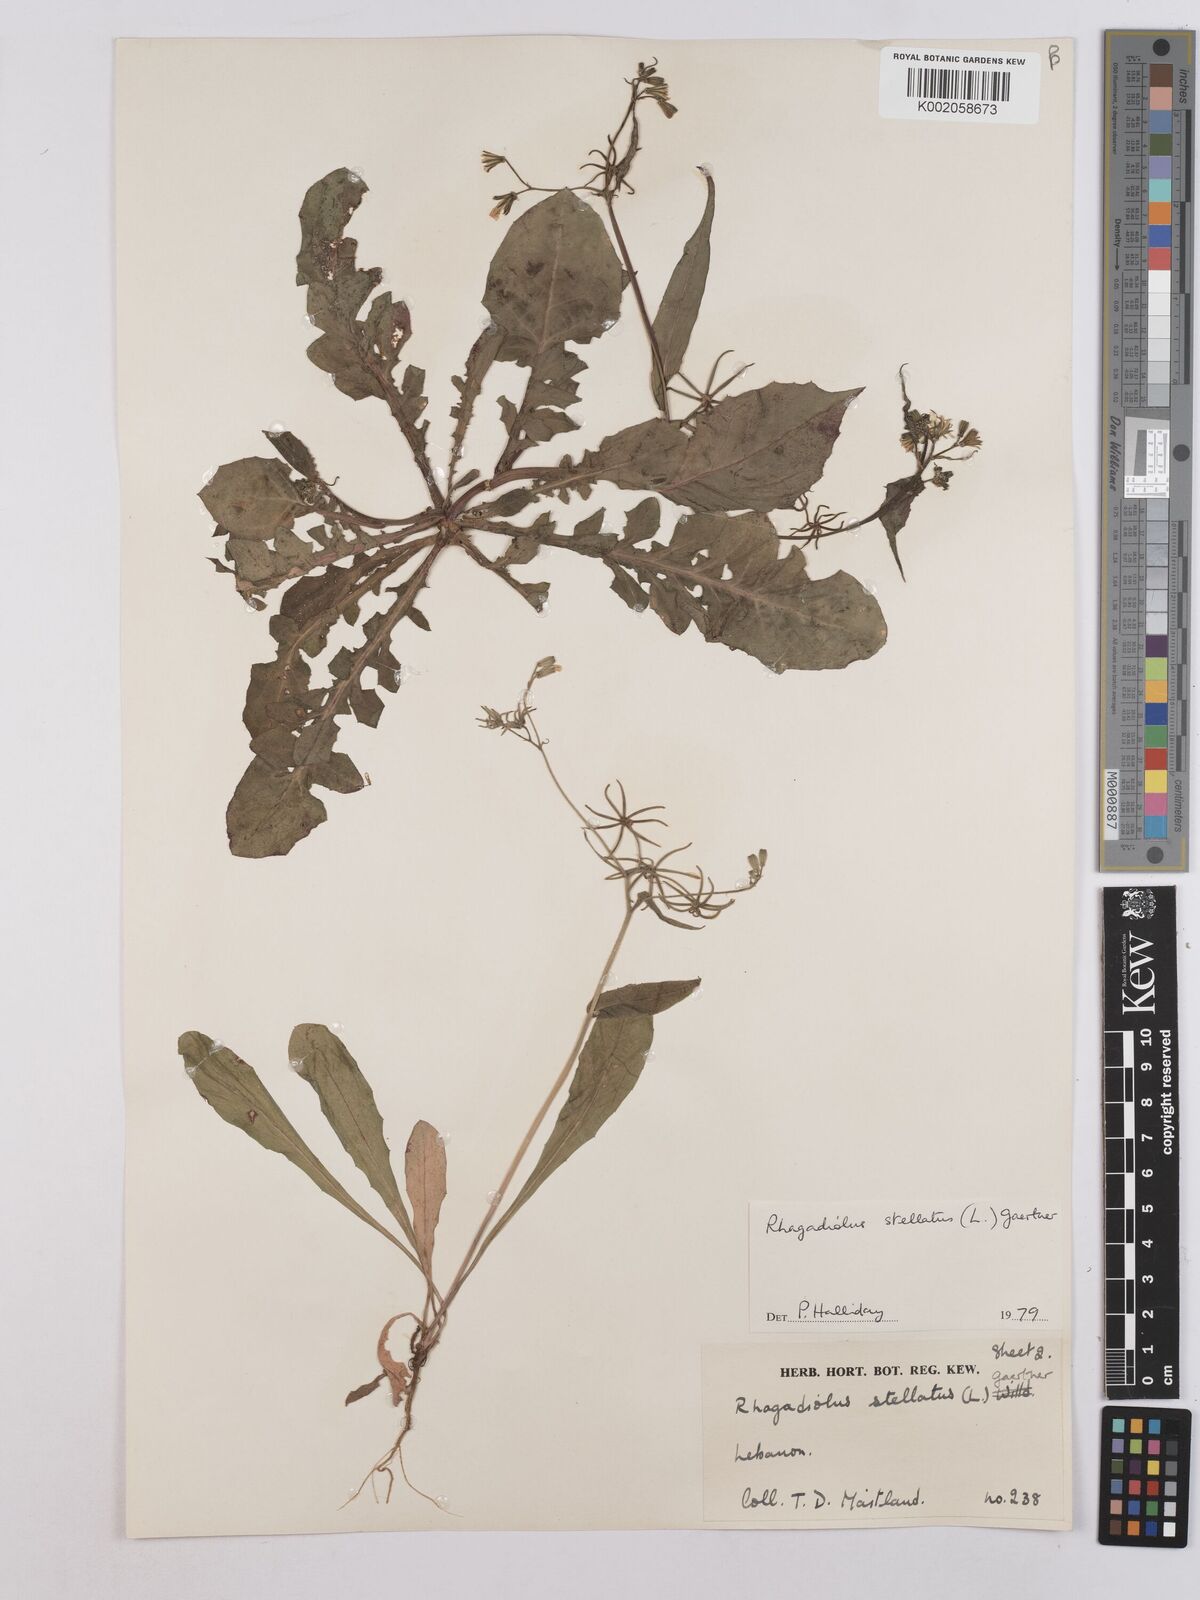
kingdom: Plantae
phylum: Tracheophyta
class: Magnoliopsida
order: Asterales
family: Asteraceae
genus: Rhagadiolus
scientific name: Rhagadiolus stellatus
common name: Star hawkbit
